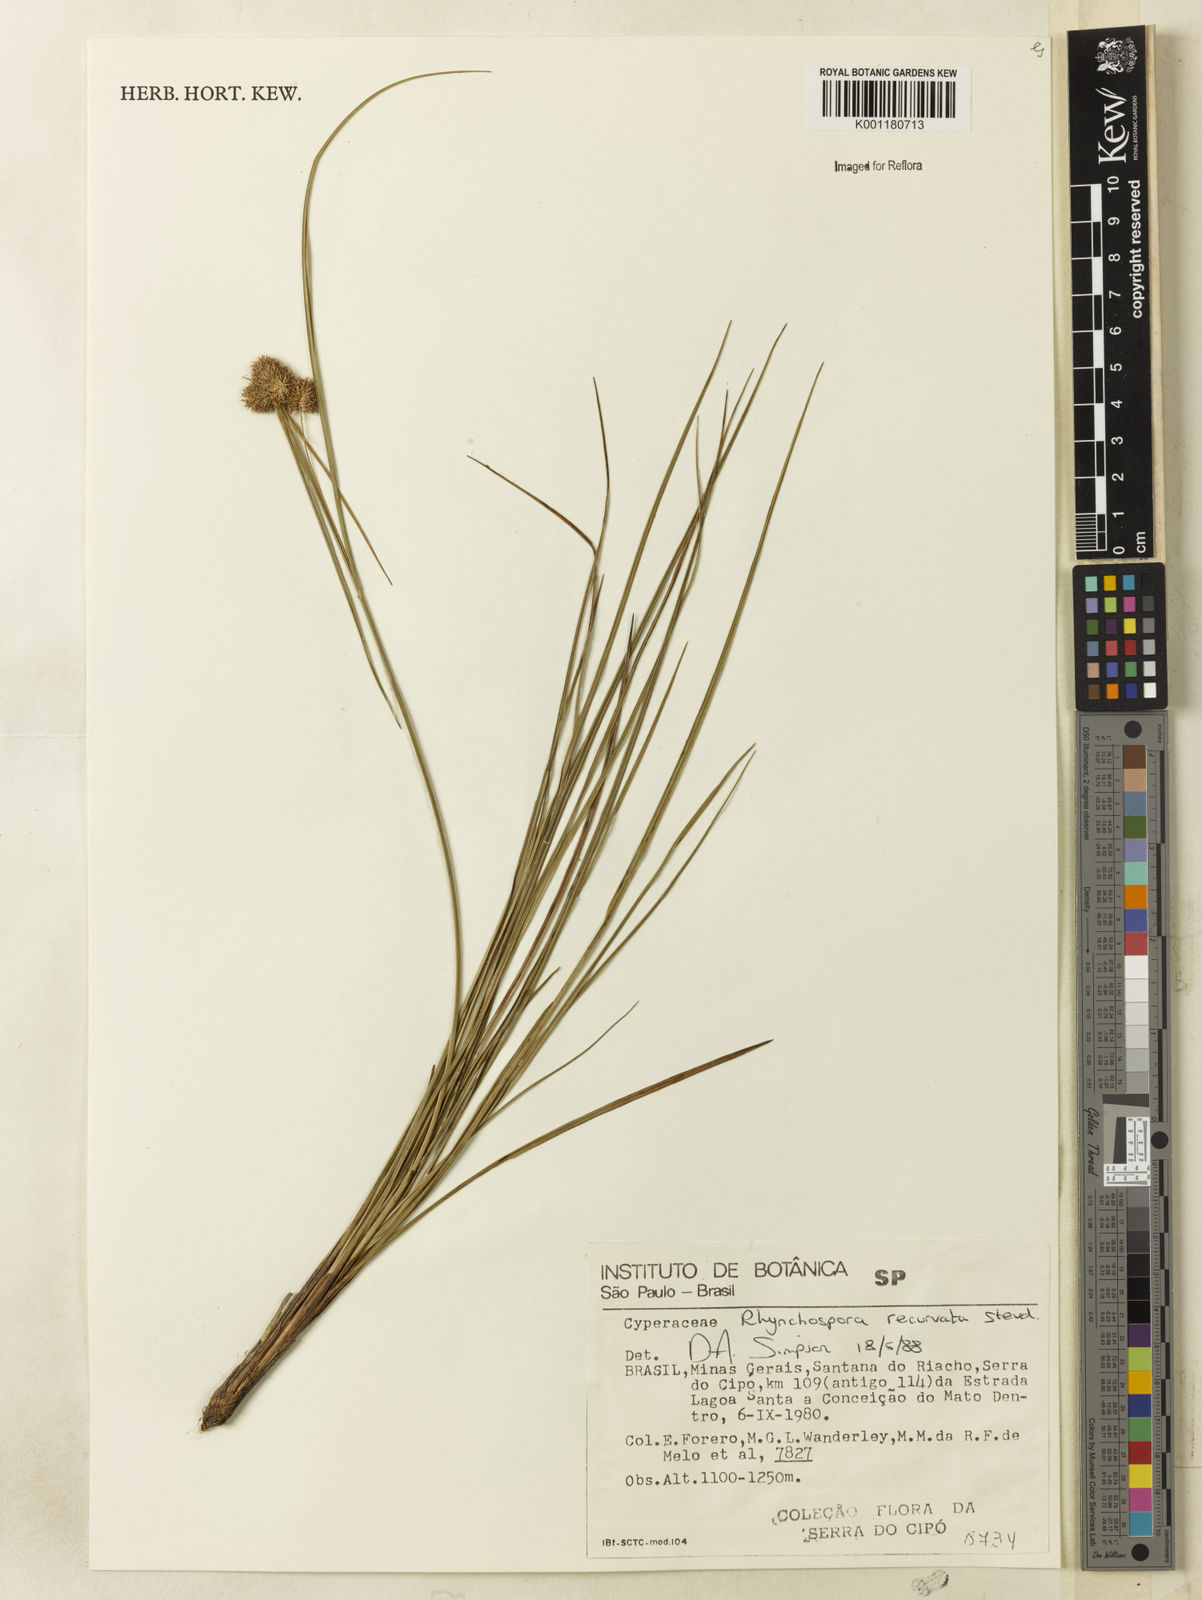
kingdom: Plantae
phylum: Tracheophyta
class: Liliopsida
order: Poales
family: Cyperaceae
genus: Rhynchospora
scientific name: Rhynchospora recurvata
